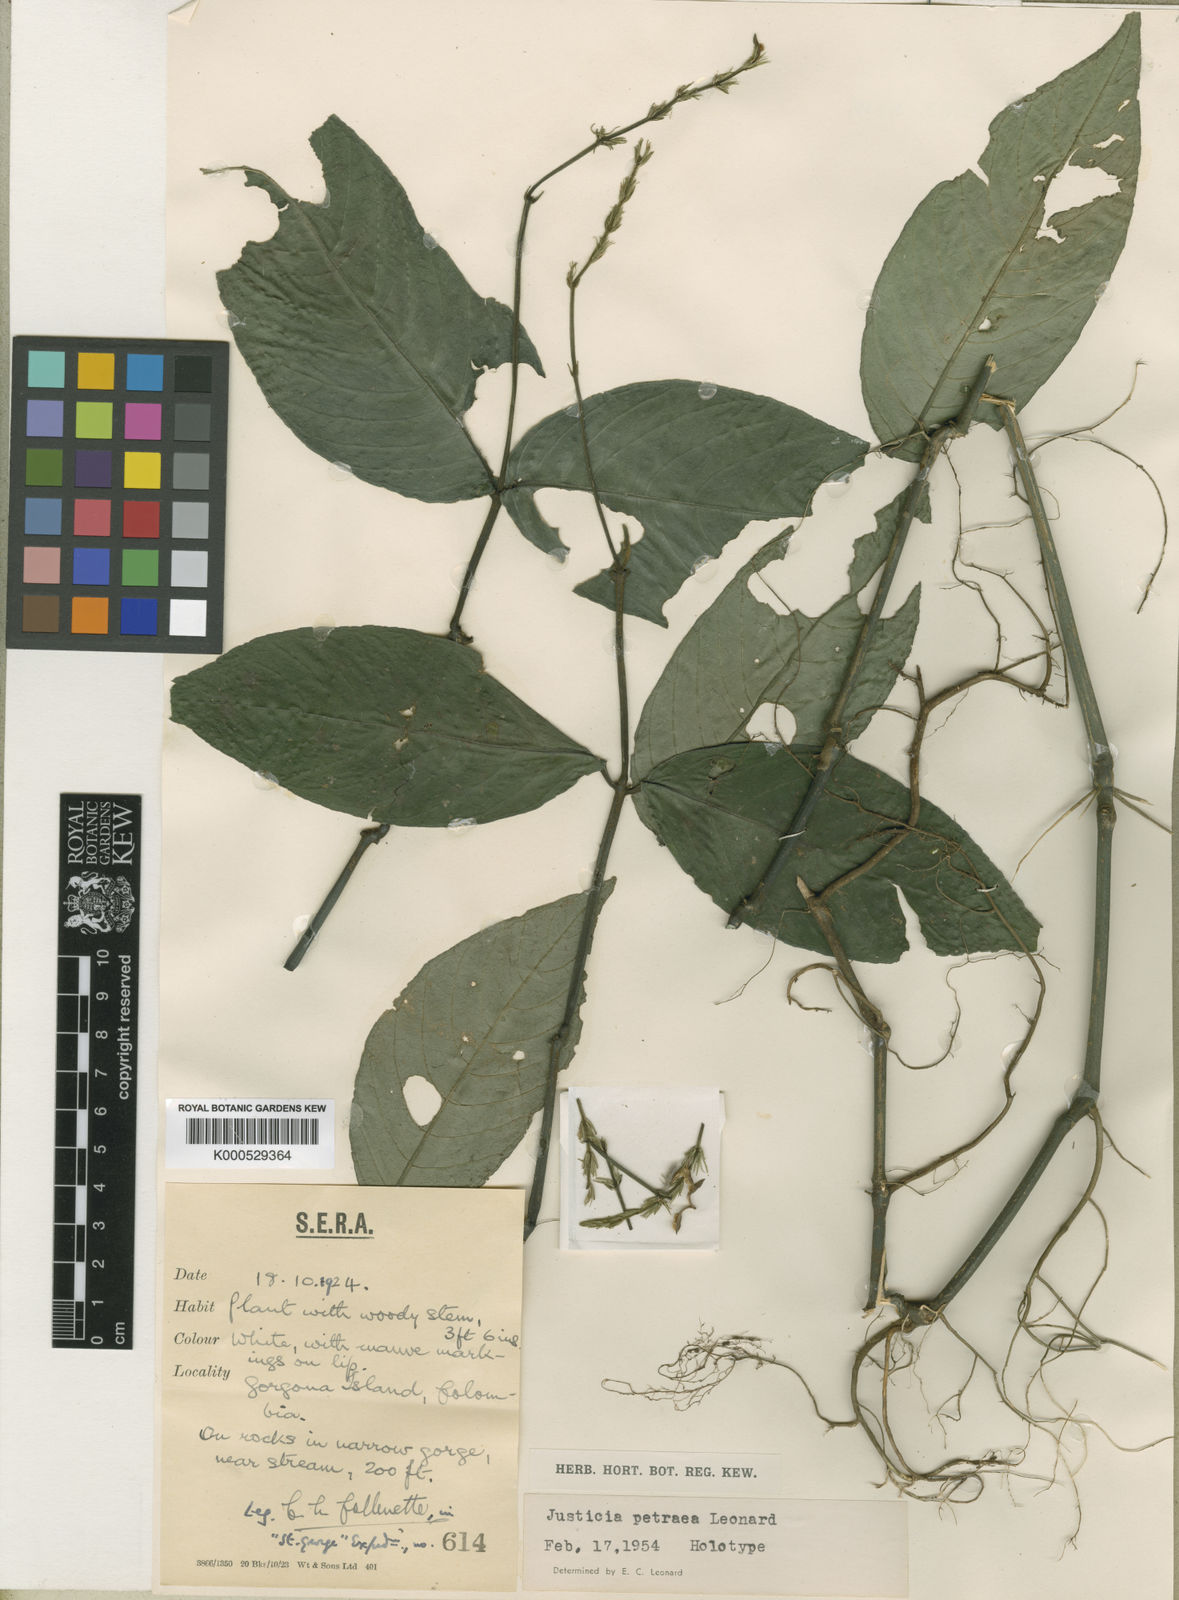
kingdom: Plantae
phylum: Tracheophyta
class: Magnoliopsida
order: Lamiales
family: Acanthaceae
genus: Justicia
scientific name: Justicia petraea
